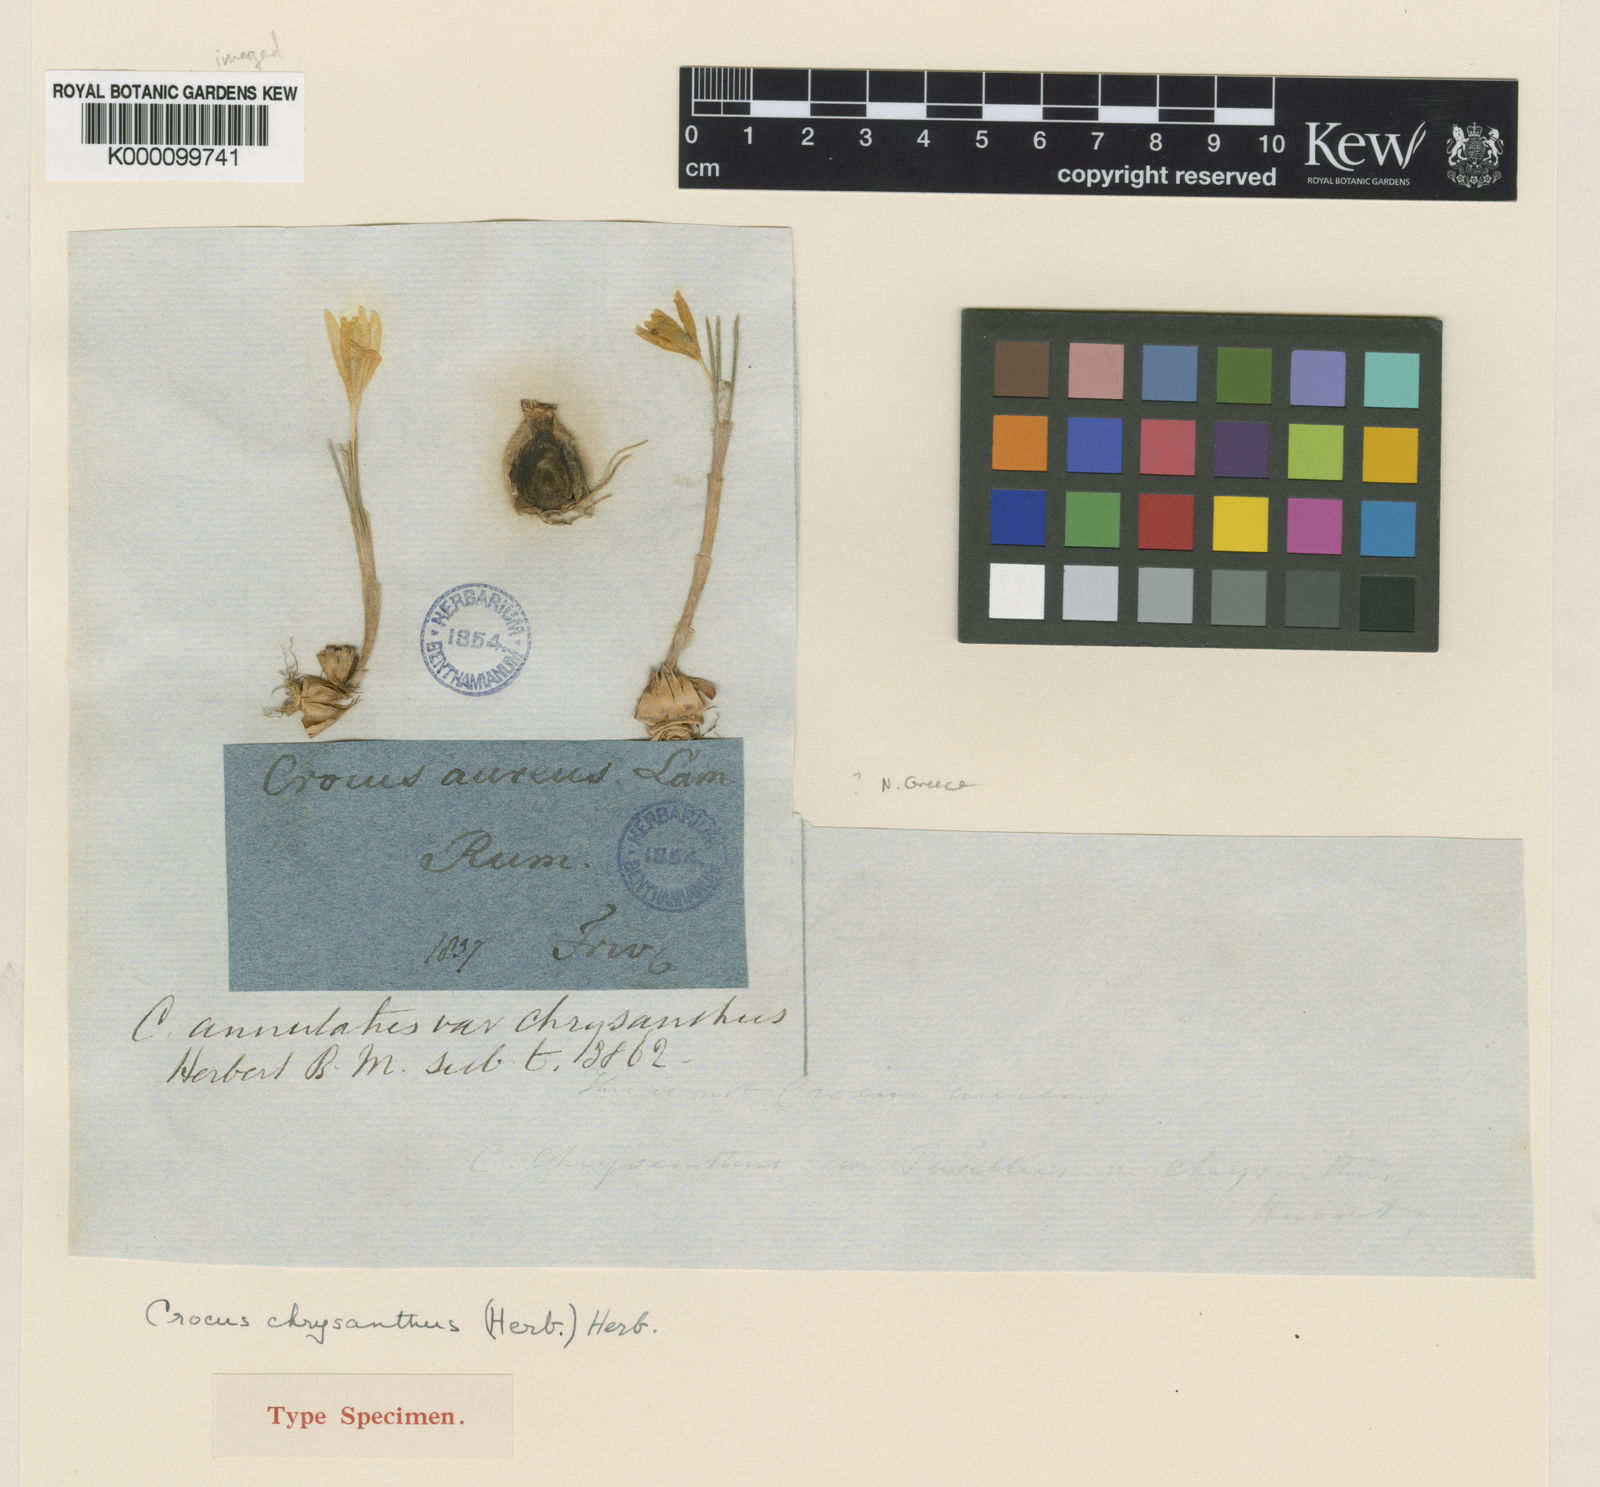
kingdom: Plantae
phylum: Tracheophyta
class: Liliopsida
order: Asparagales
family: Iridaceae
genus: Crocus
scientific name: Crocus chrysanthus
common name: Golden crocus
